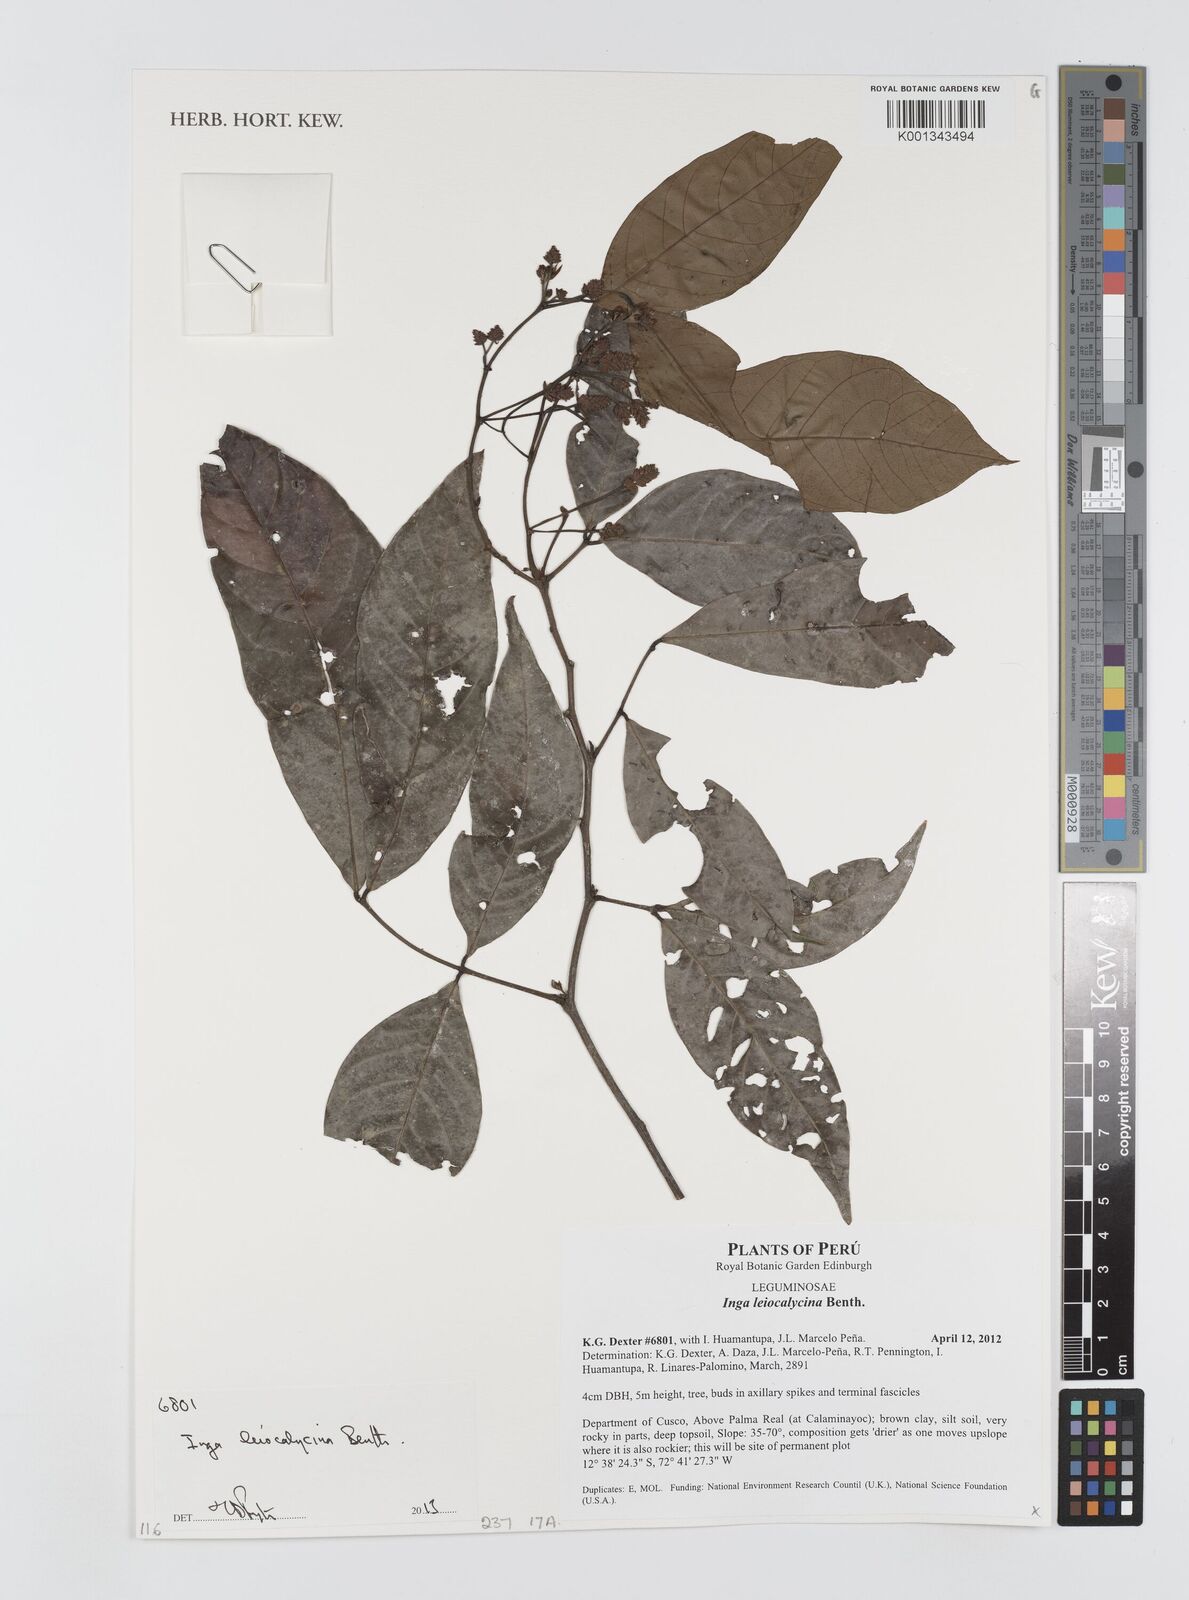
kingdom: Plantae
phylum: Tracheophyta
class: Magnoliopsida
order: Fabales
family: Fabaceae
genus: Inga
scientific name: Inga laevigata
